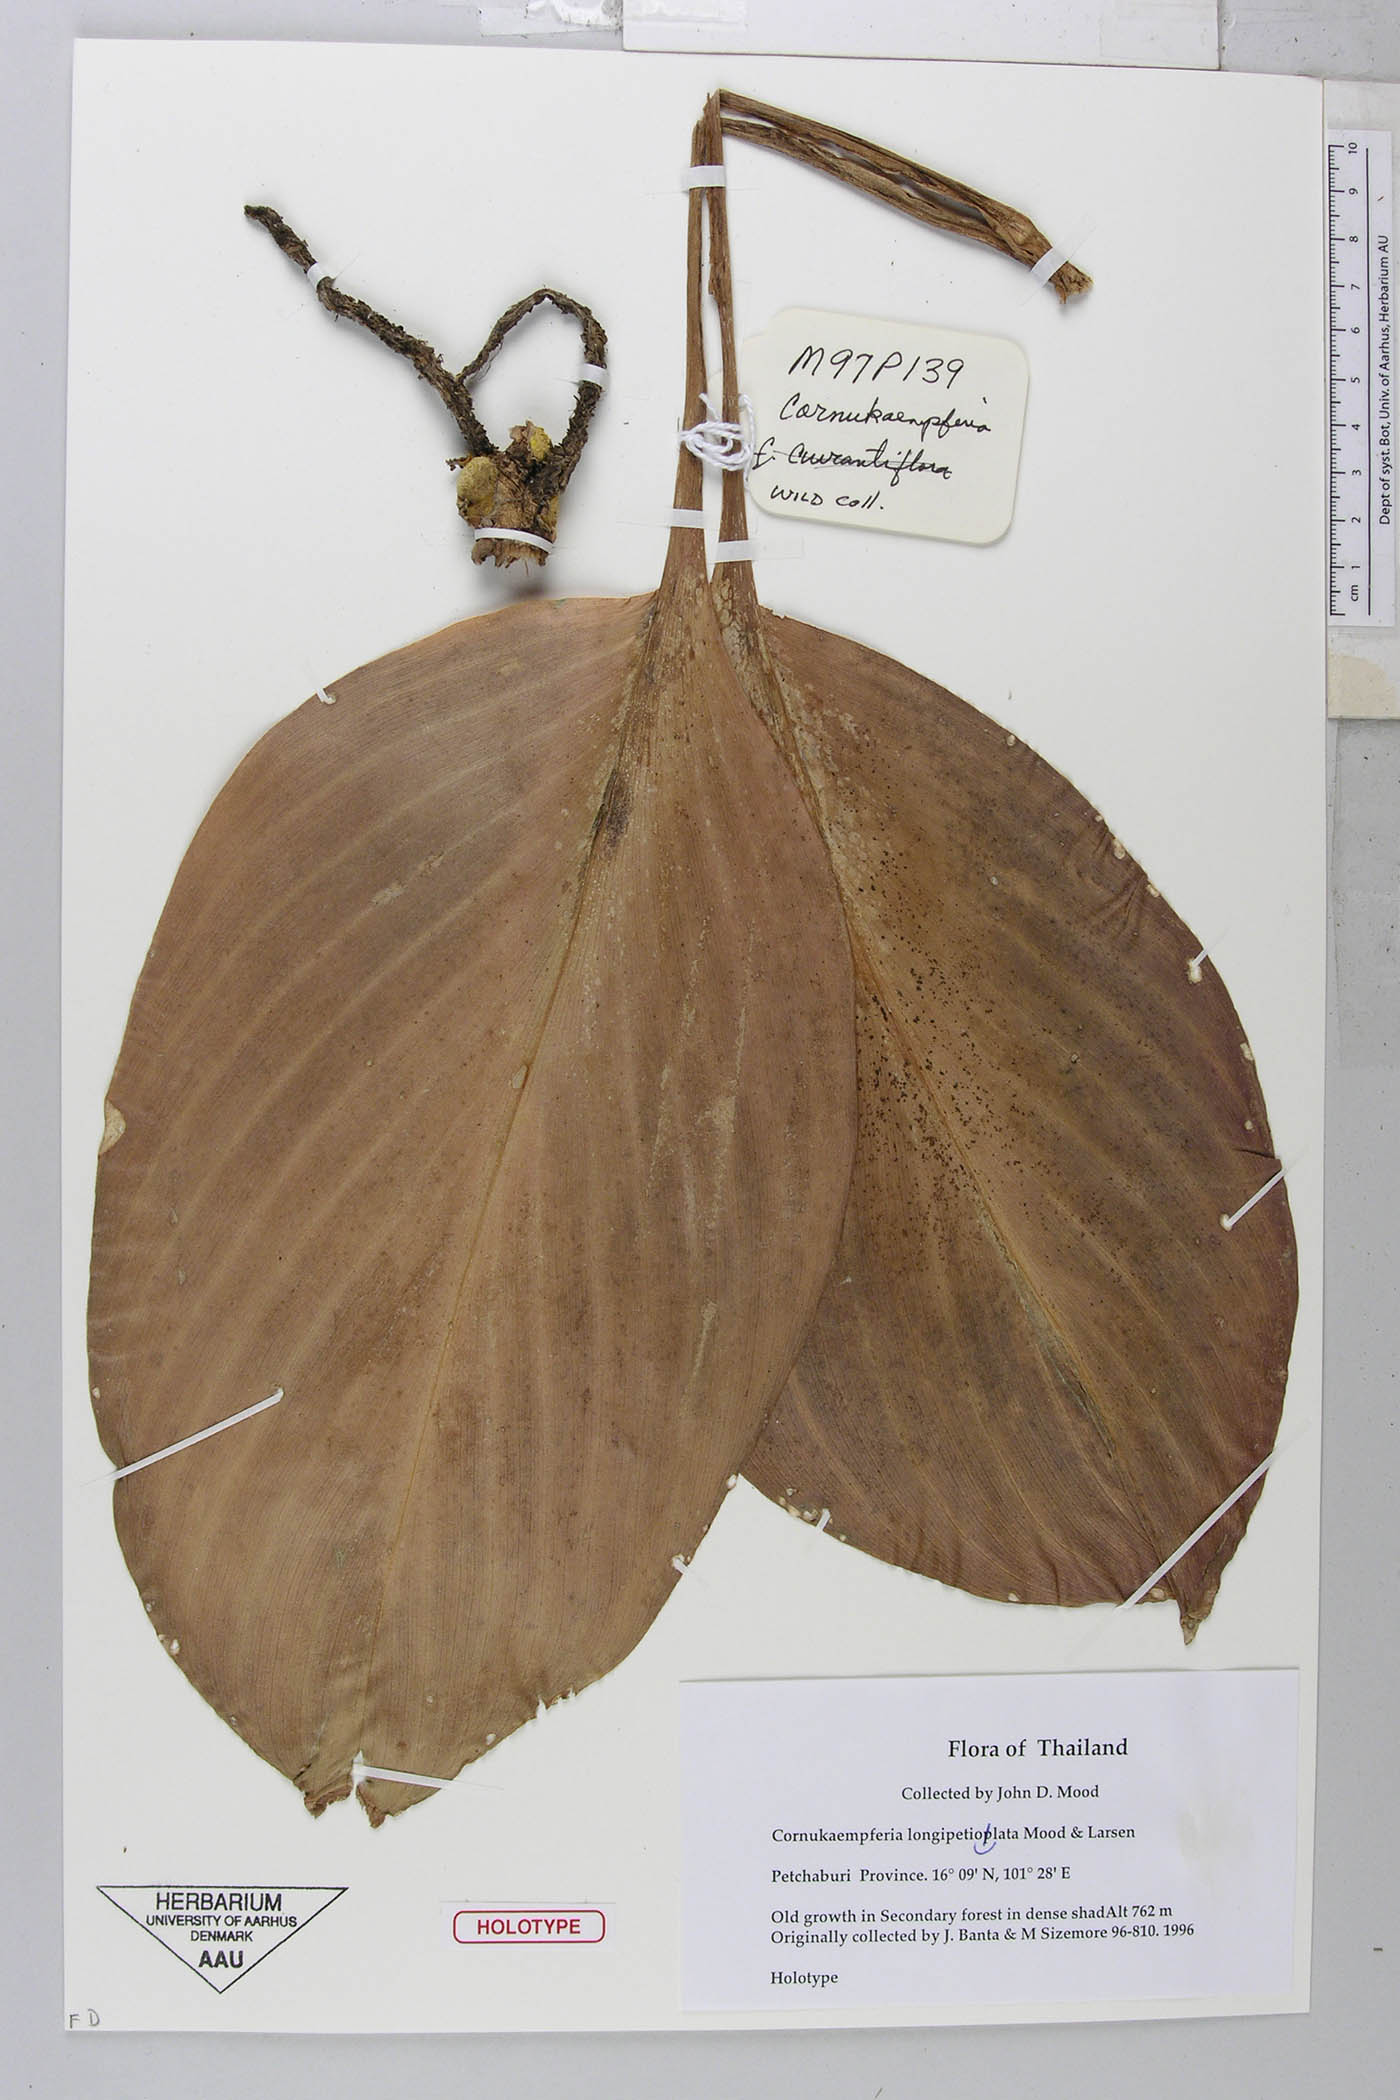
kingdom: Plantae
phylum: Tracheophyta
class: Liliopsida
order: Zingiberales
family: Zingiberaceae
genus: Cornukaempferia
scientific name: Cornukaempferia longipetiolata
